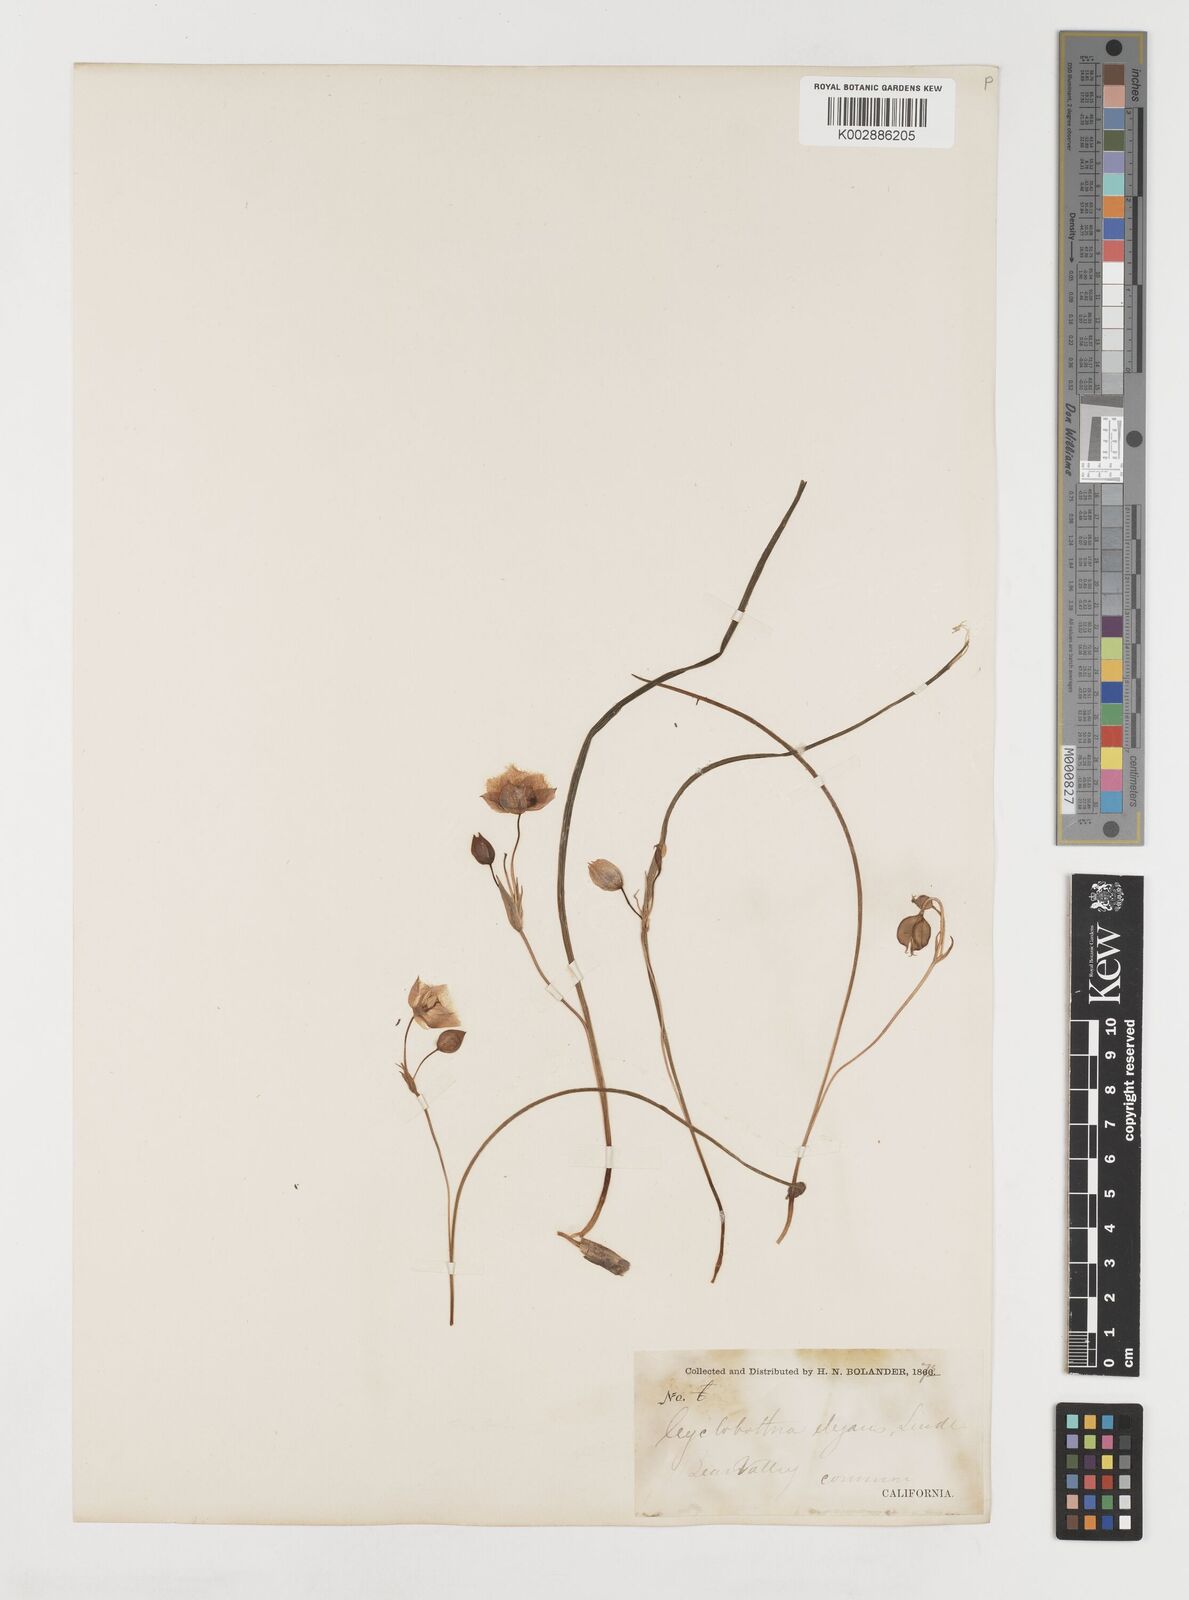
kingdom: Plantae
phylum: Tracheophyta
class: Liliopsida
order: Liliales
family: Liliaceae
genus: Calochortus
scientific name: Calochortus elegans
